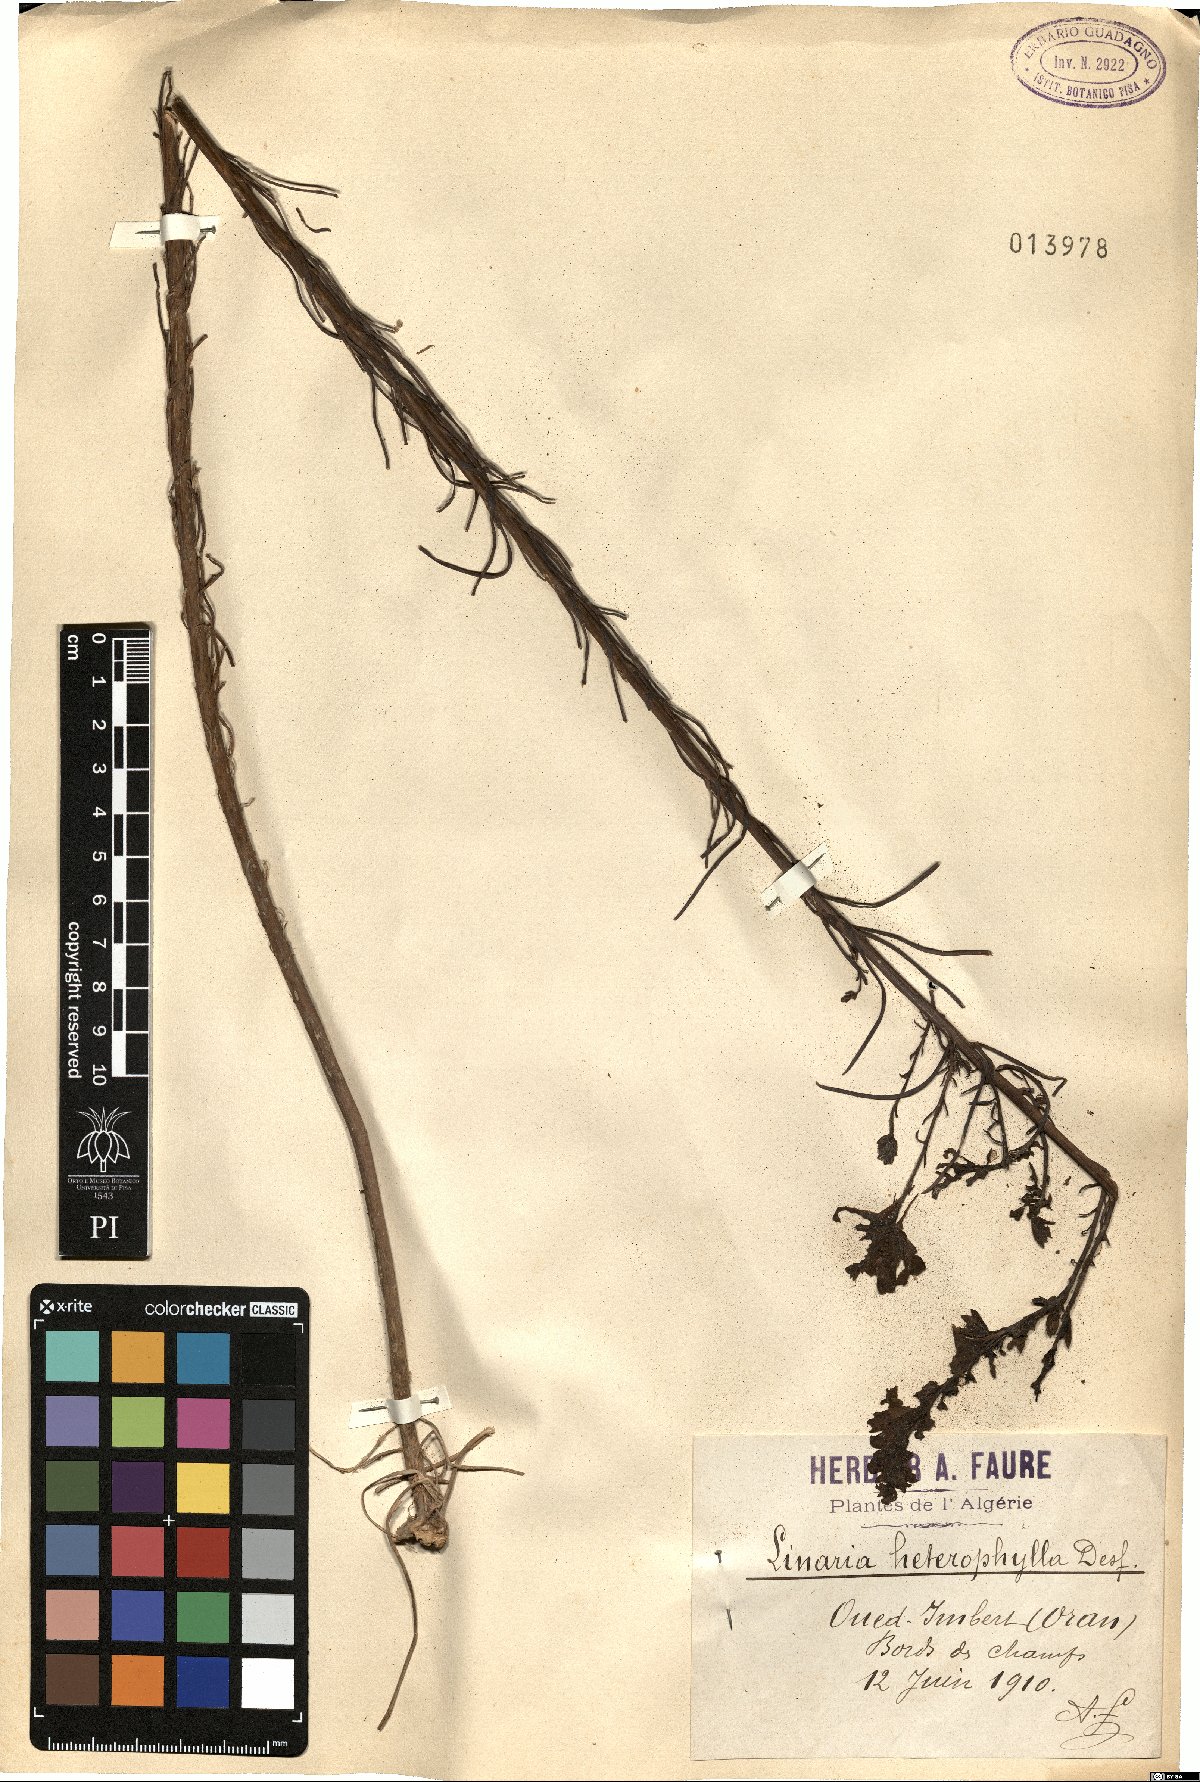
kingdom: Plantae
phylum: Tracheophyta
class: Magnoliopsida
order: Lamiales
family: Plantaginaceae
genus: Linaria
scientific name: Linaria multicaulis
